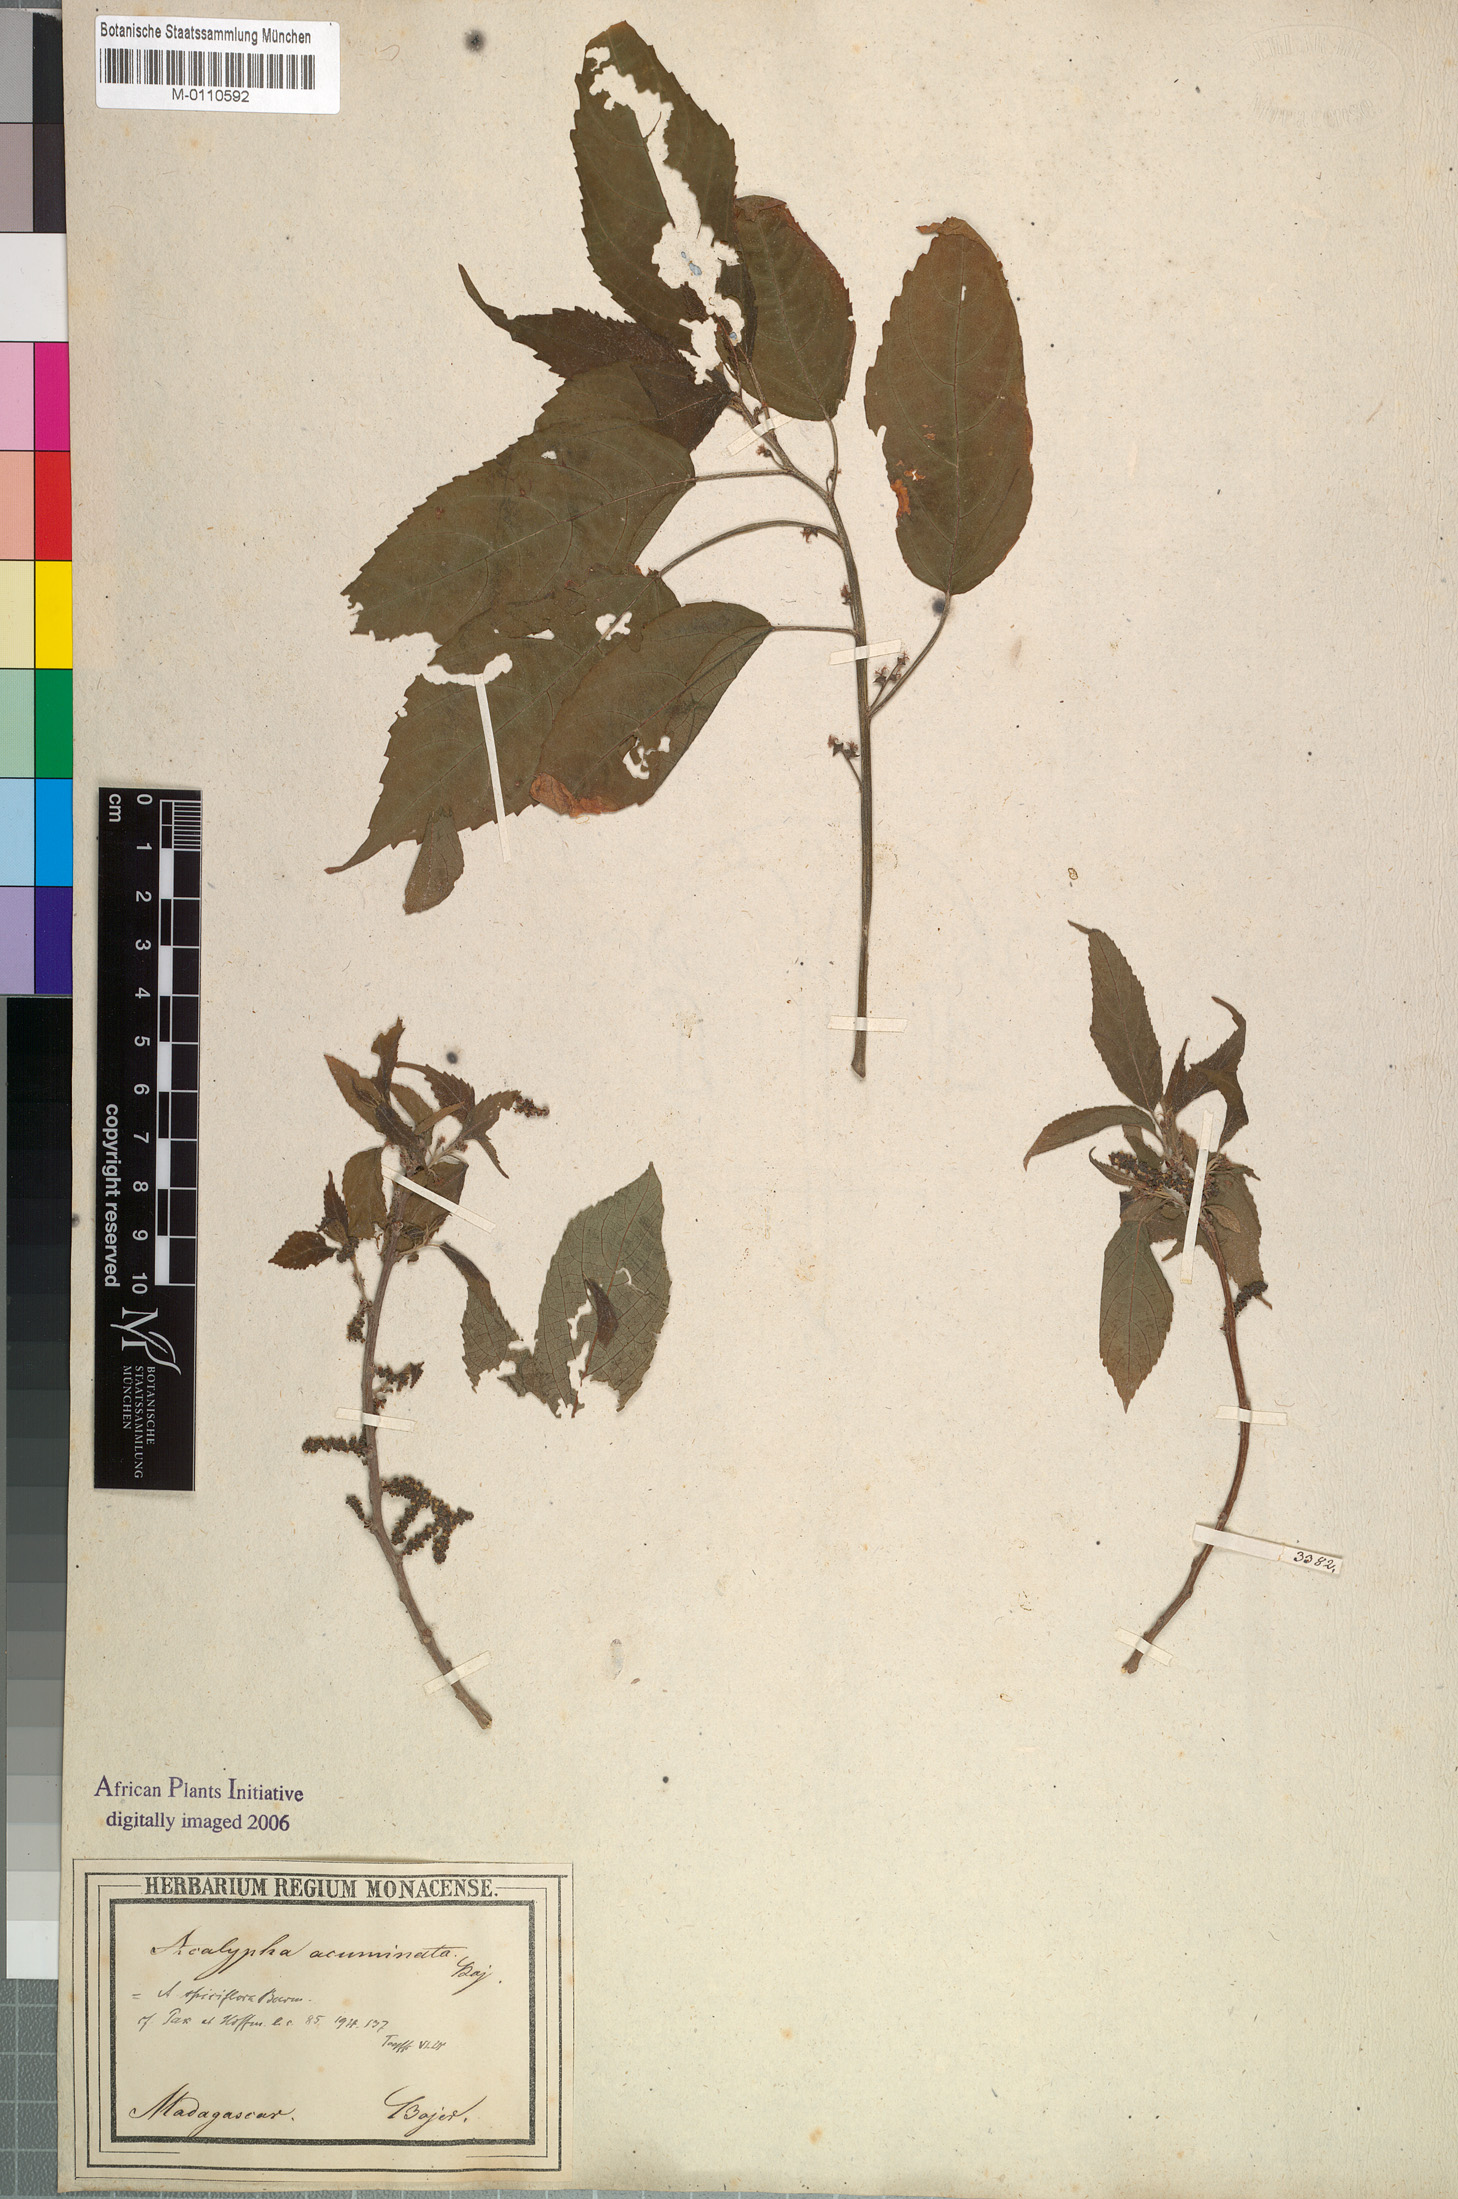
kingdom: Plantae
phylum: Tracheophyta
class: Magnoliopsida
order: Malpighiales
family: Euphorbiaceae
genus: Acalypha
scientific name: Acalypha acuminata
